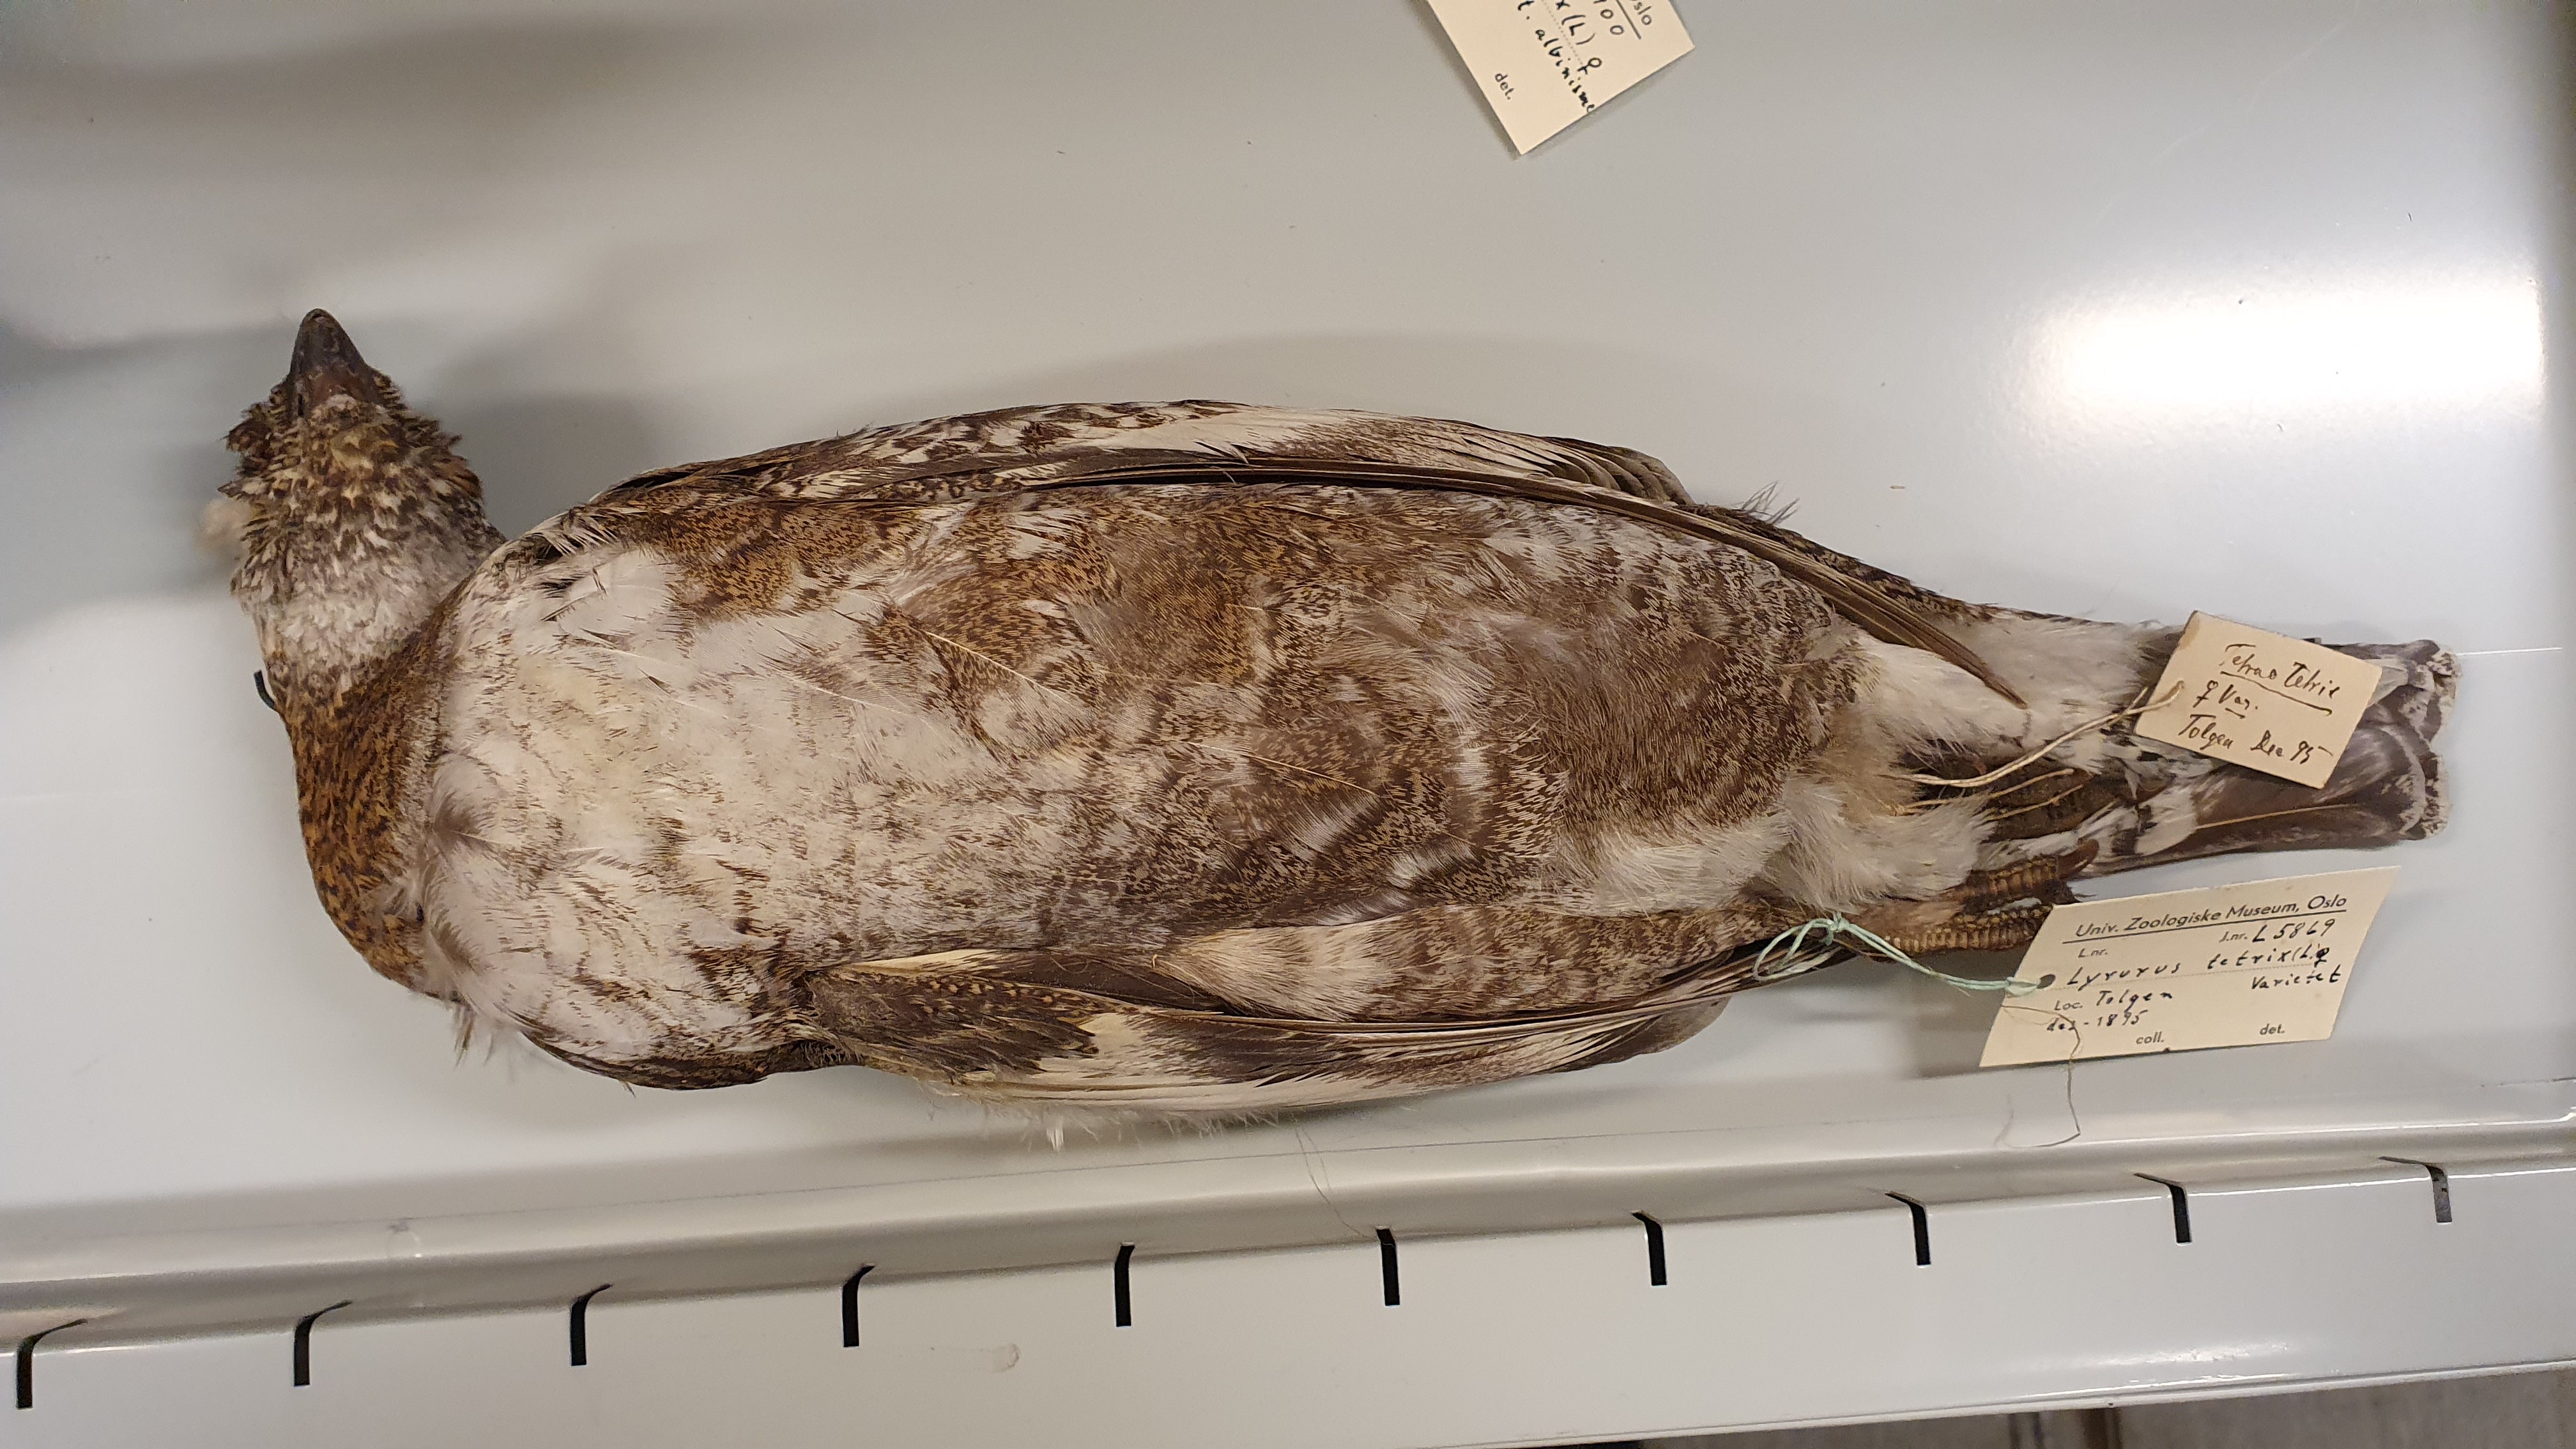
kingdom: Animalia
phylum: Chordata
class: Aves
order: Galliformes
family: Phasianidae
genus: Lyrurus
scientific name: Lyrurus tetrix
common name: Black grouse
